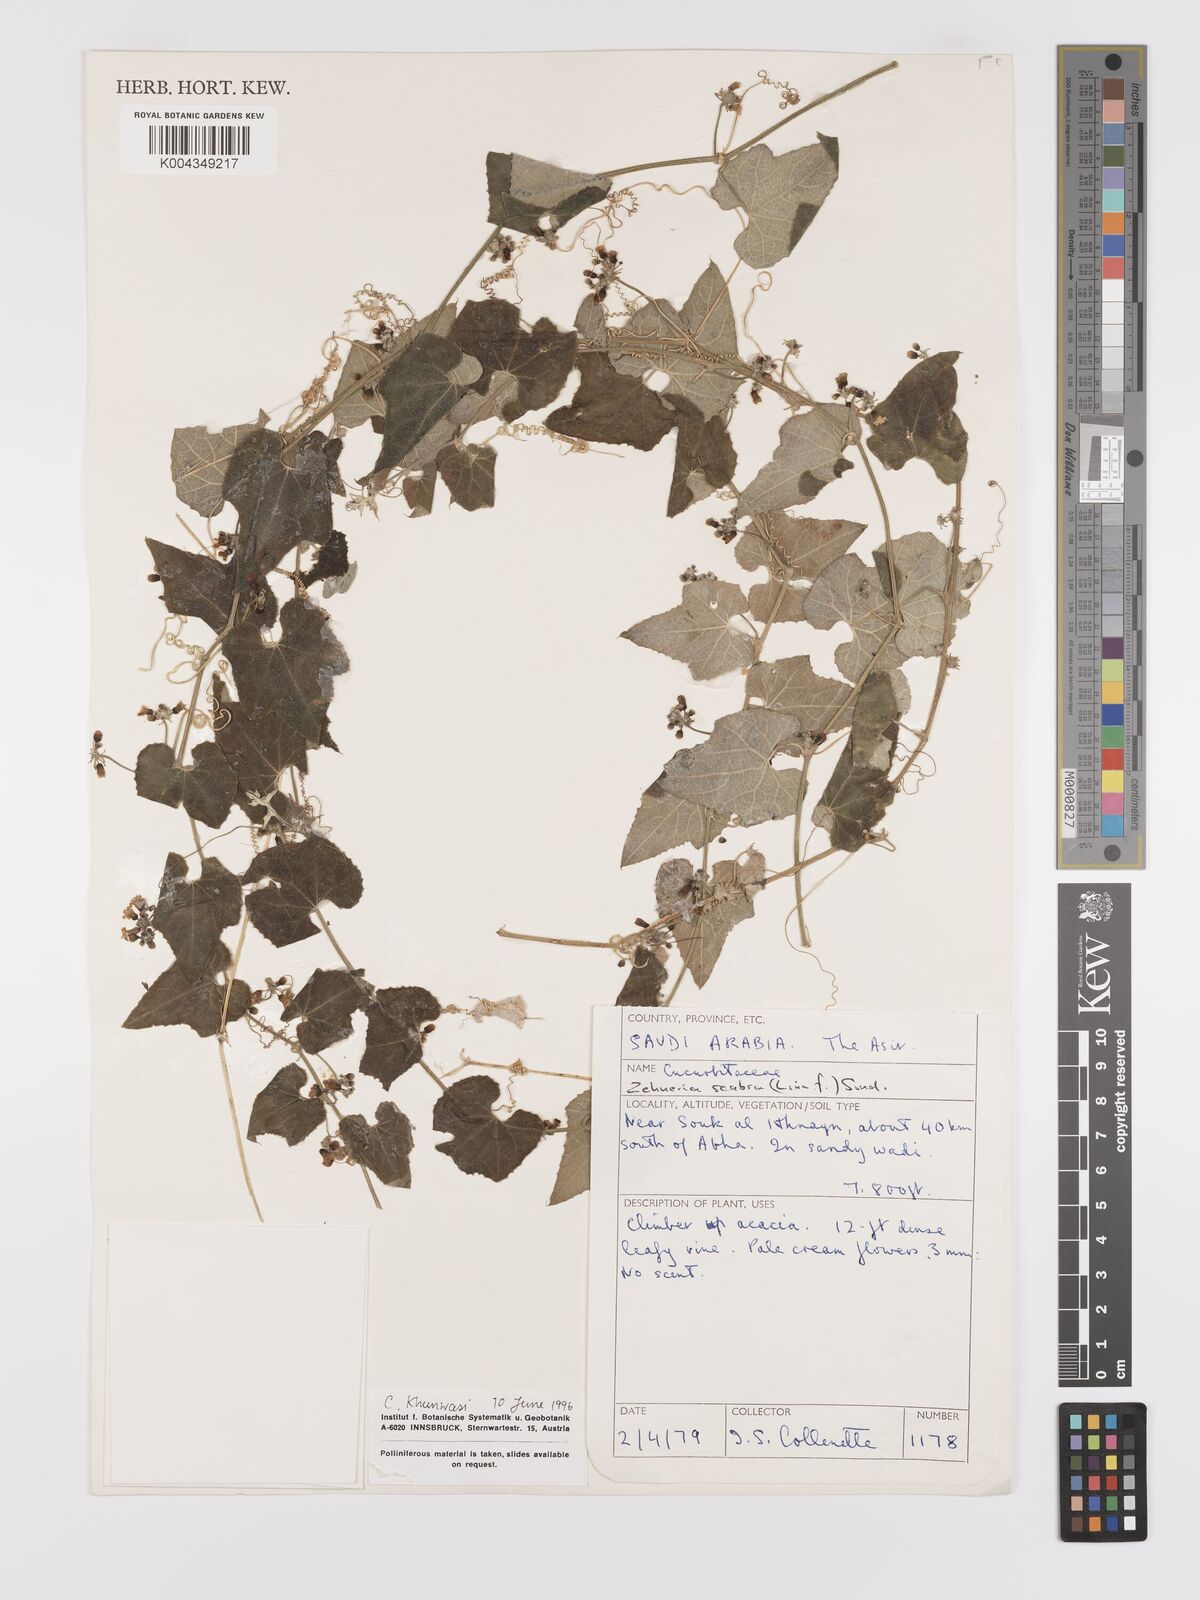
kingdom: Plantae
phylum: Tracheophyta
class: Magnoliopsida
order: Cucurbitales
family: Cucurbitaceae
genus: Zehneria
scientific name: Zehneria scabra
